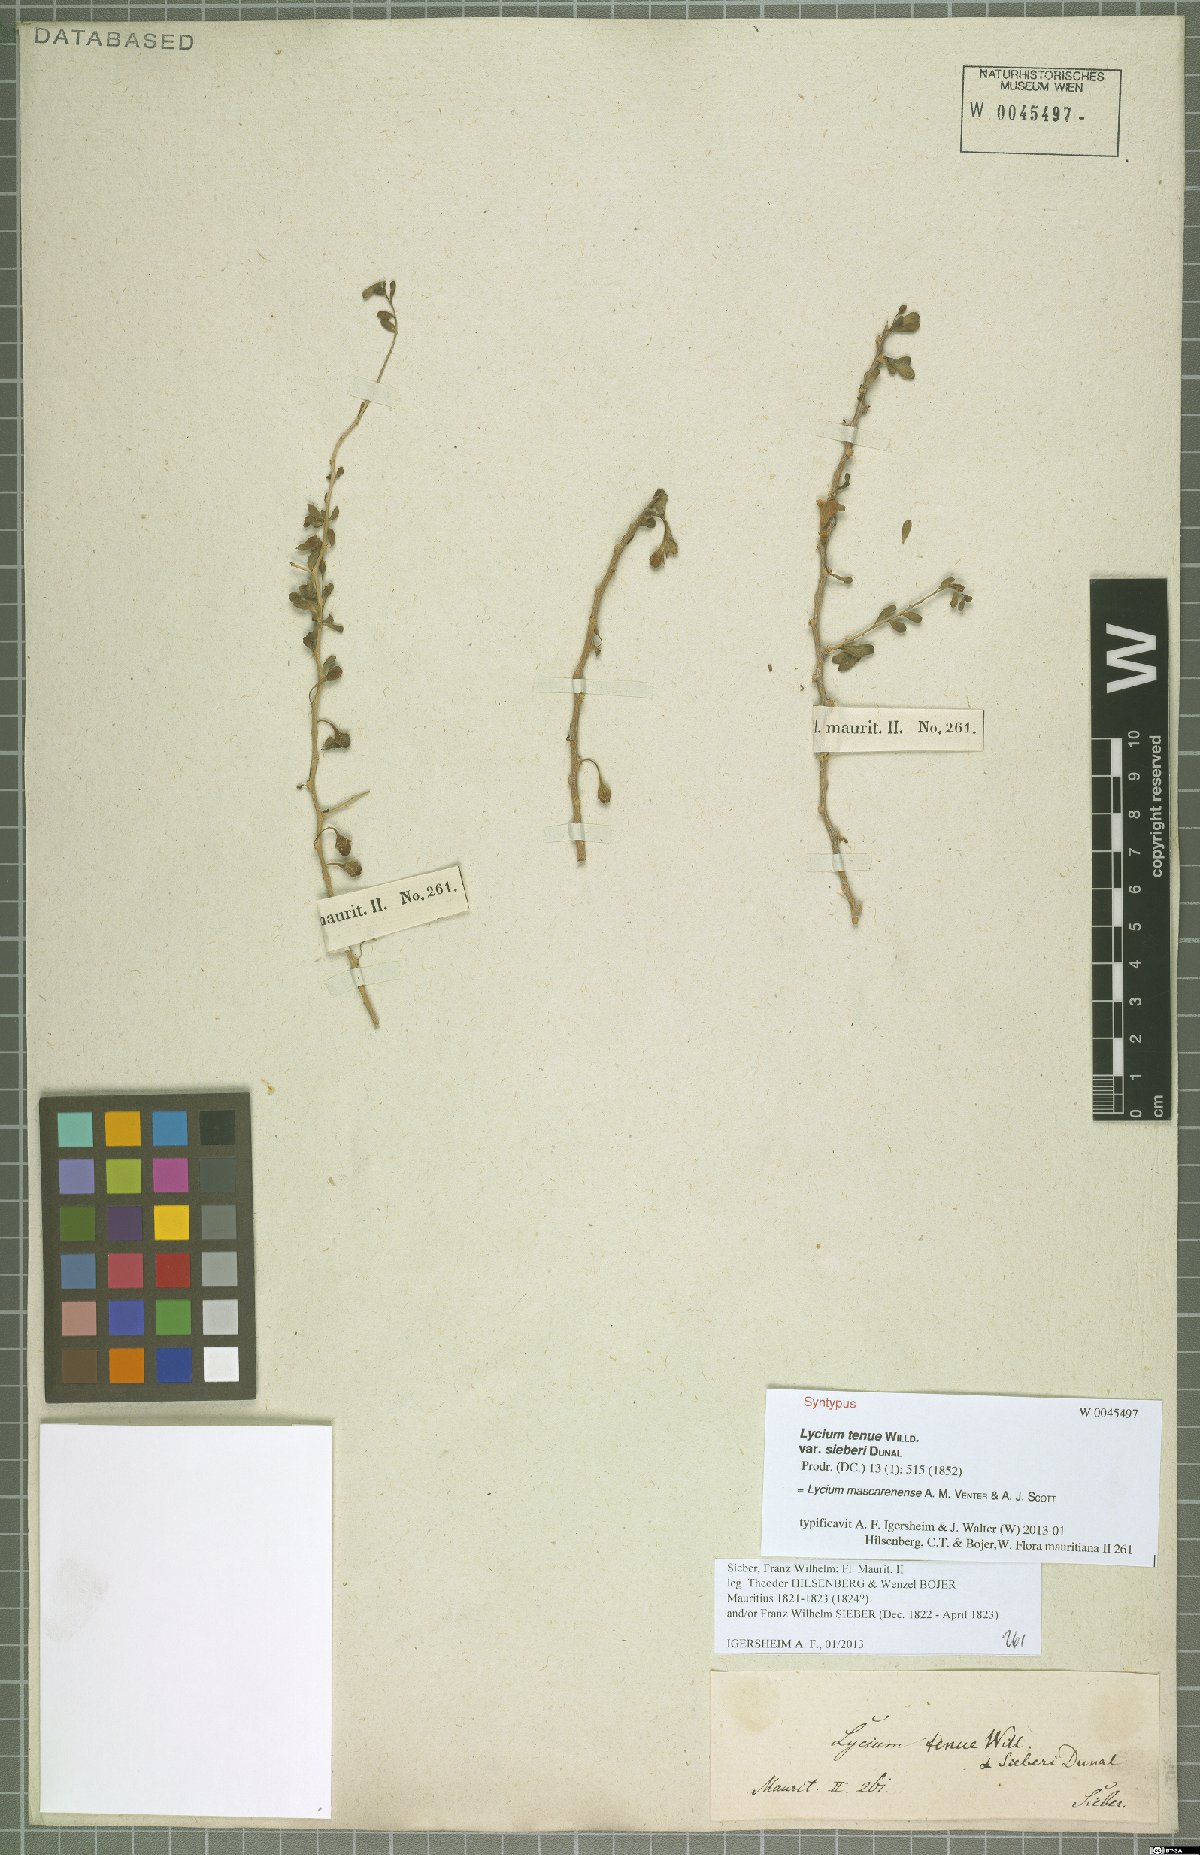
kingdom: Plantae
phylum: Tracheophyta
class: Magnoliopsida
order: Solanales
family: Solanaceae
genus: Lycium
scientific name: Lycium mascarenense
